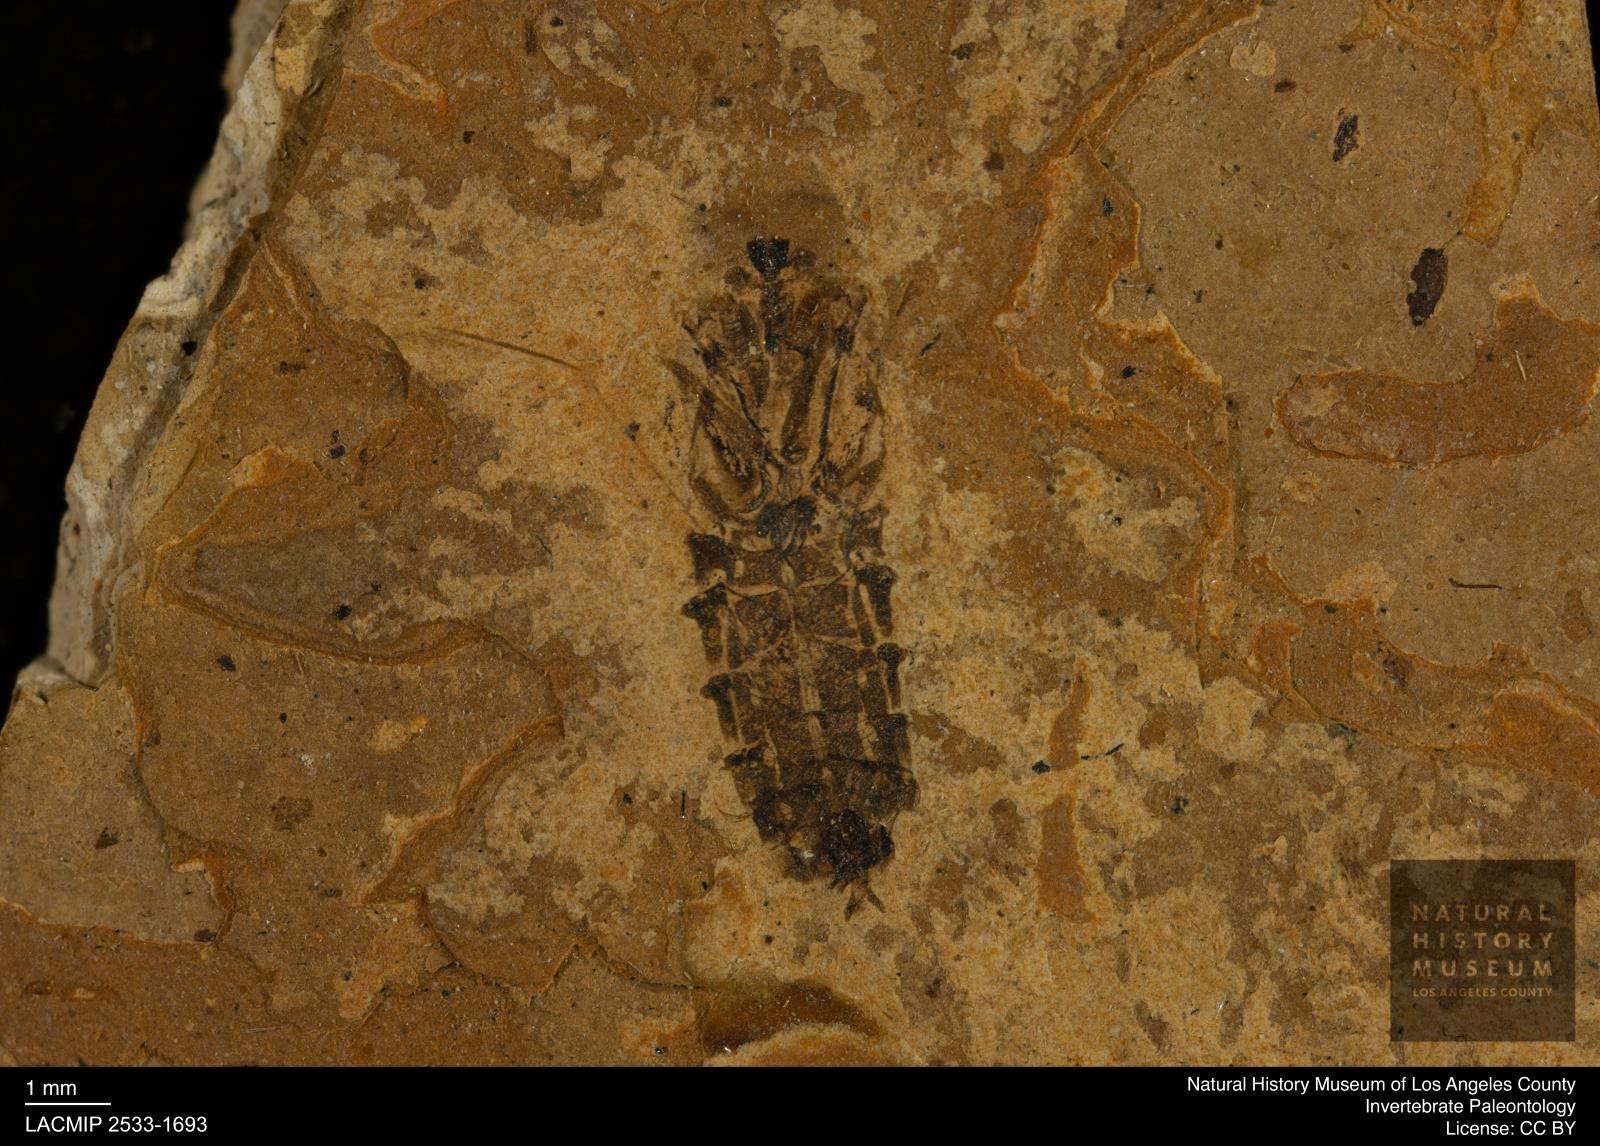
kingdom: Animalia
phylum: Arthropoda
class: Insecta
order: Hemiptera
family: Notonectidae
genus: Notonecta
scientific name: Notonecta
